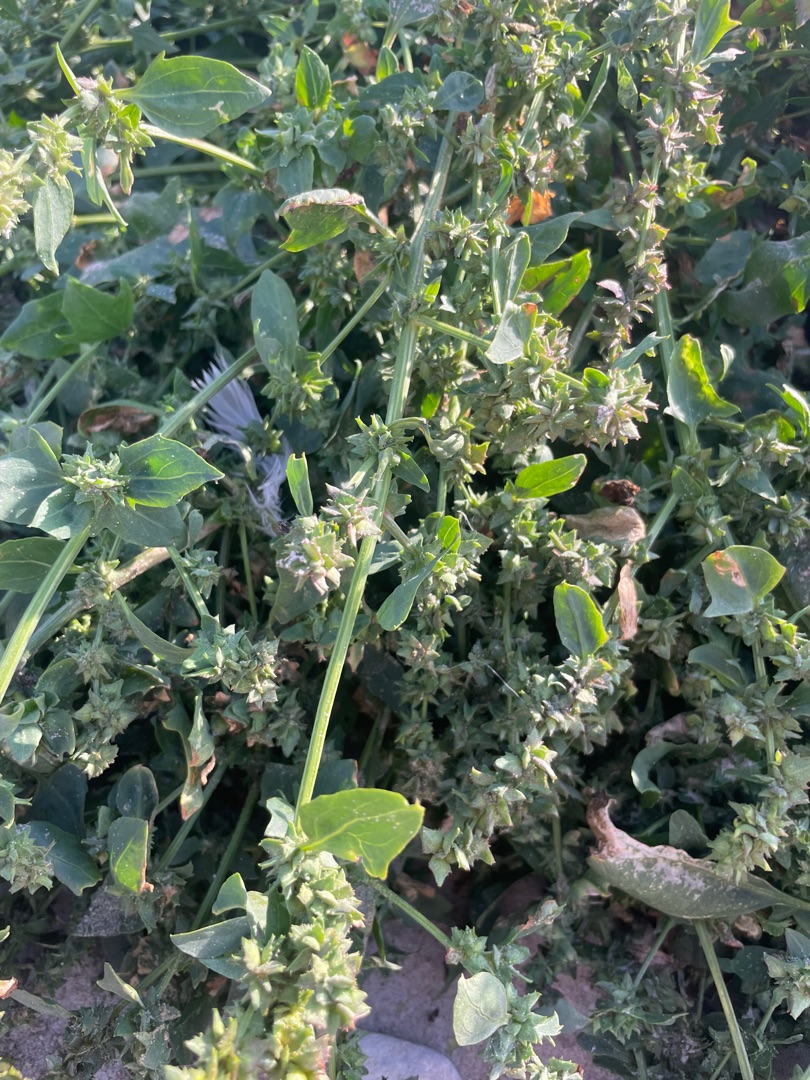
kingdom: Plantae
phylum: Tracheophyta
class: Magnoliopsida
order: Caryophyllales
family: Amaranthaceae
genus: Beta
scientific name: Beta vulgaris
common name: Bede
